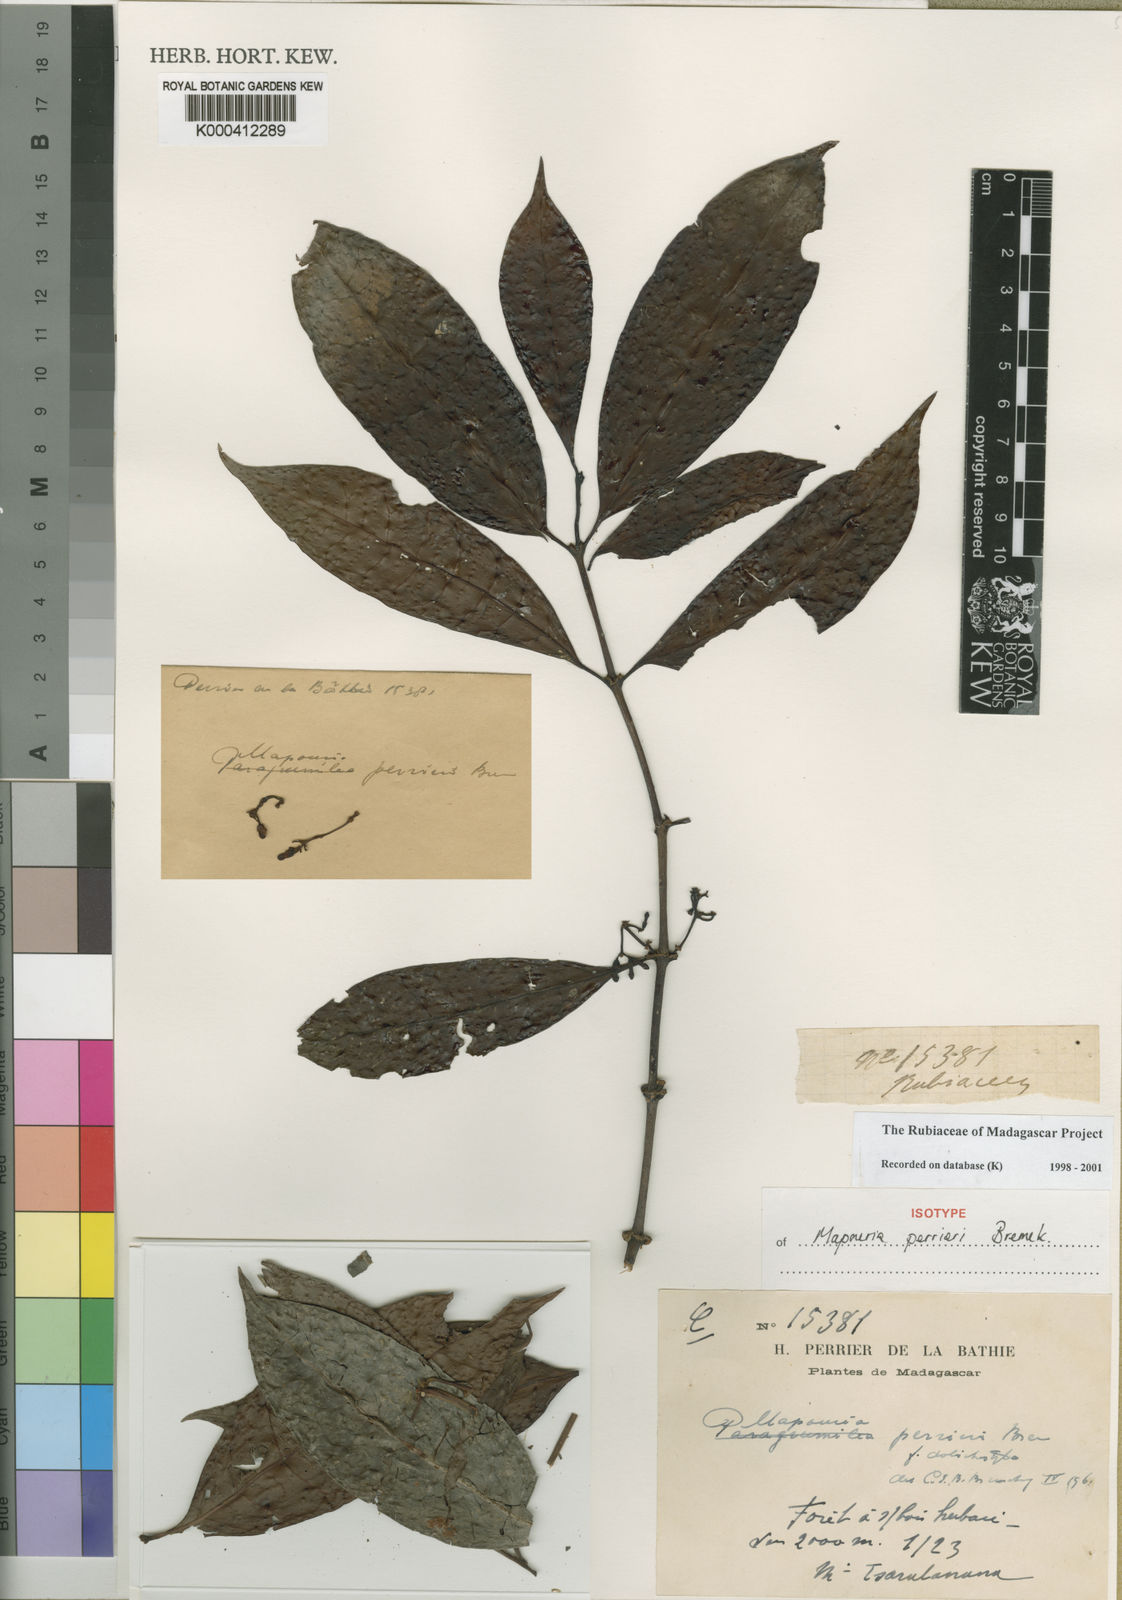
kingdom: Plantae
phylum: Tracheophyta
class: Magnoliopsida
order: Gentianales
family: Rubiaceae
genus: Psychotria
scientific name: Psychotria perrieri
